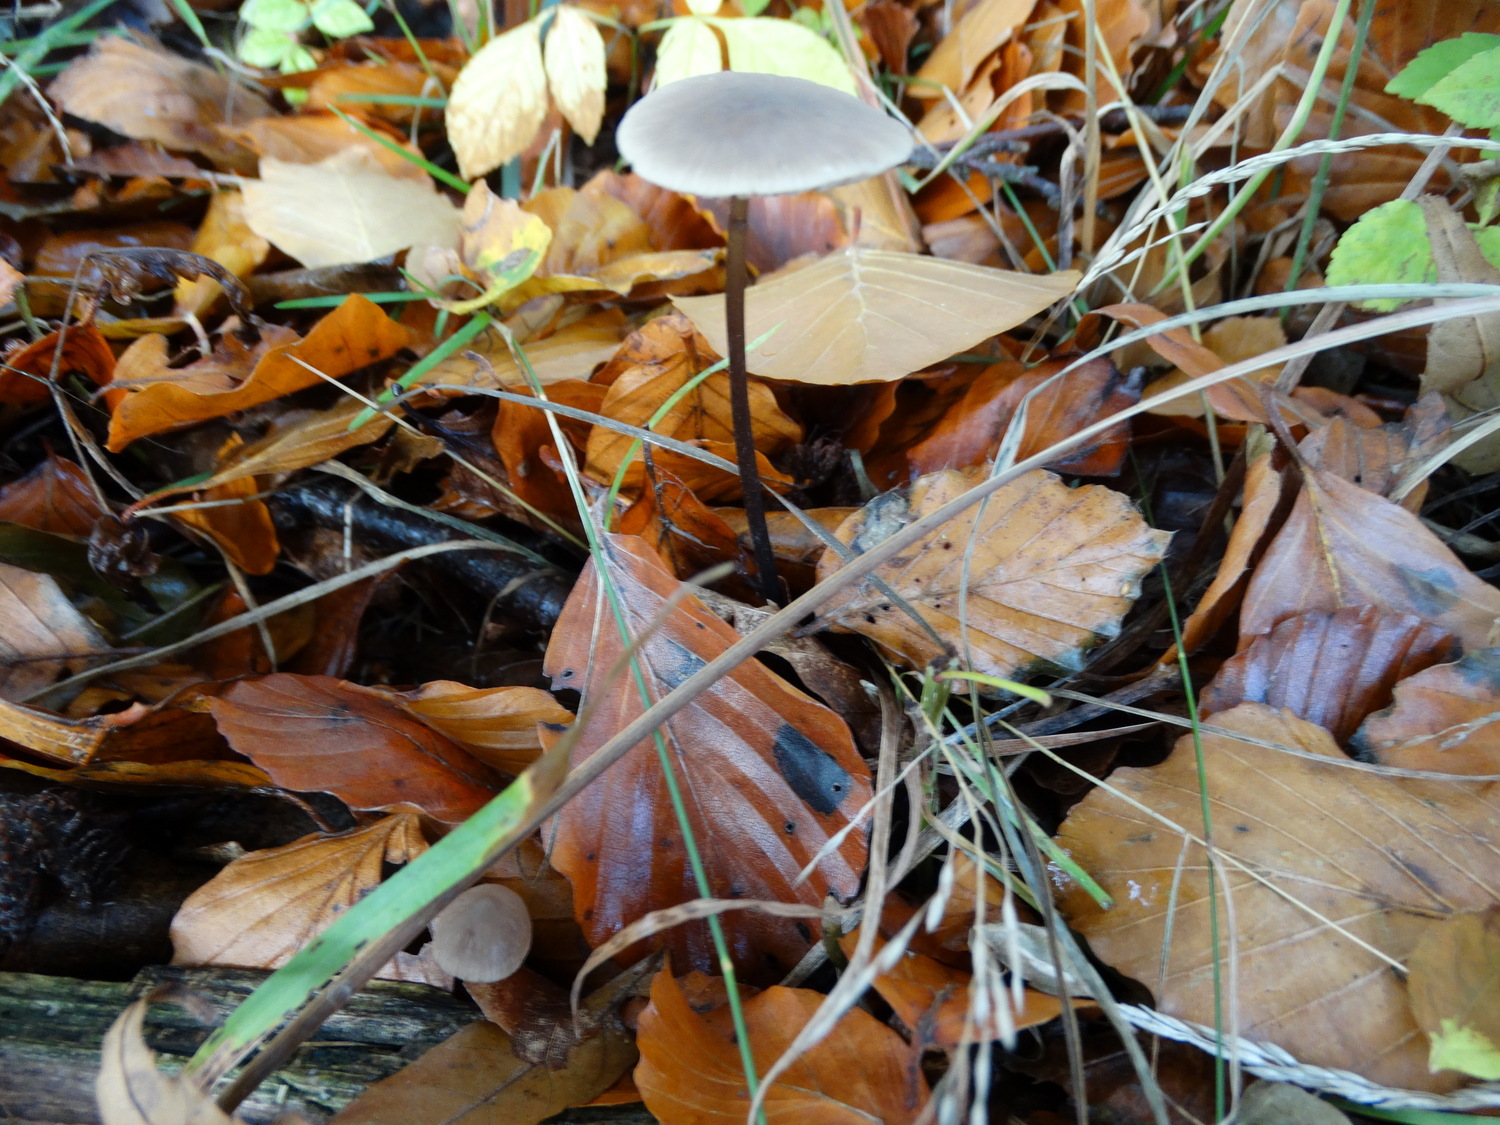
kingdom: Fungi
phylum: Basidiomycota
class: Agaricomycetes
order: Agaricales
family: Omphalotaceae
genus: Mycetinis
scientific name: Mycetinis alliaceus
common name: stor løghat
